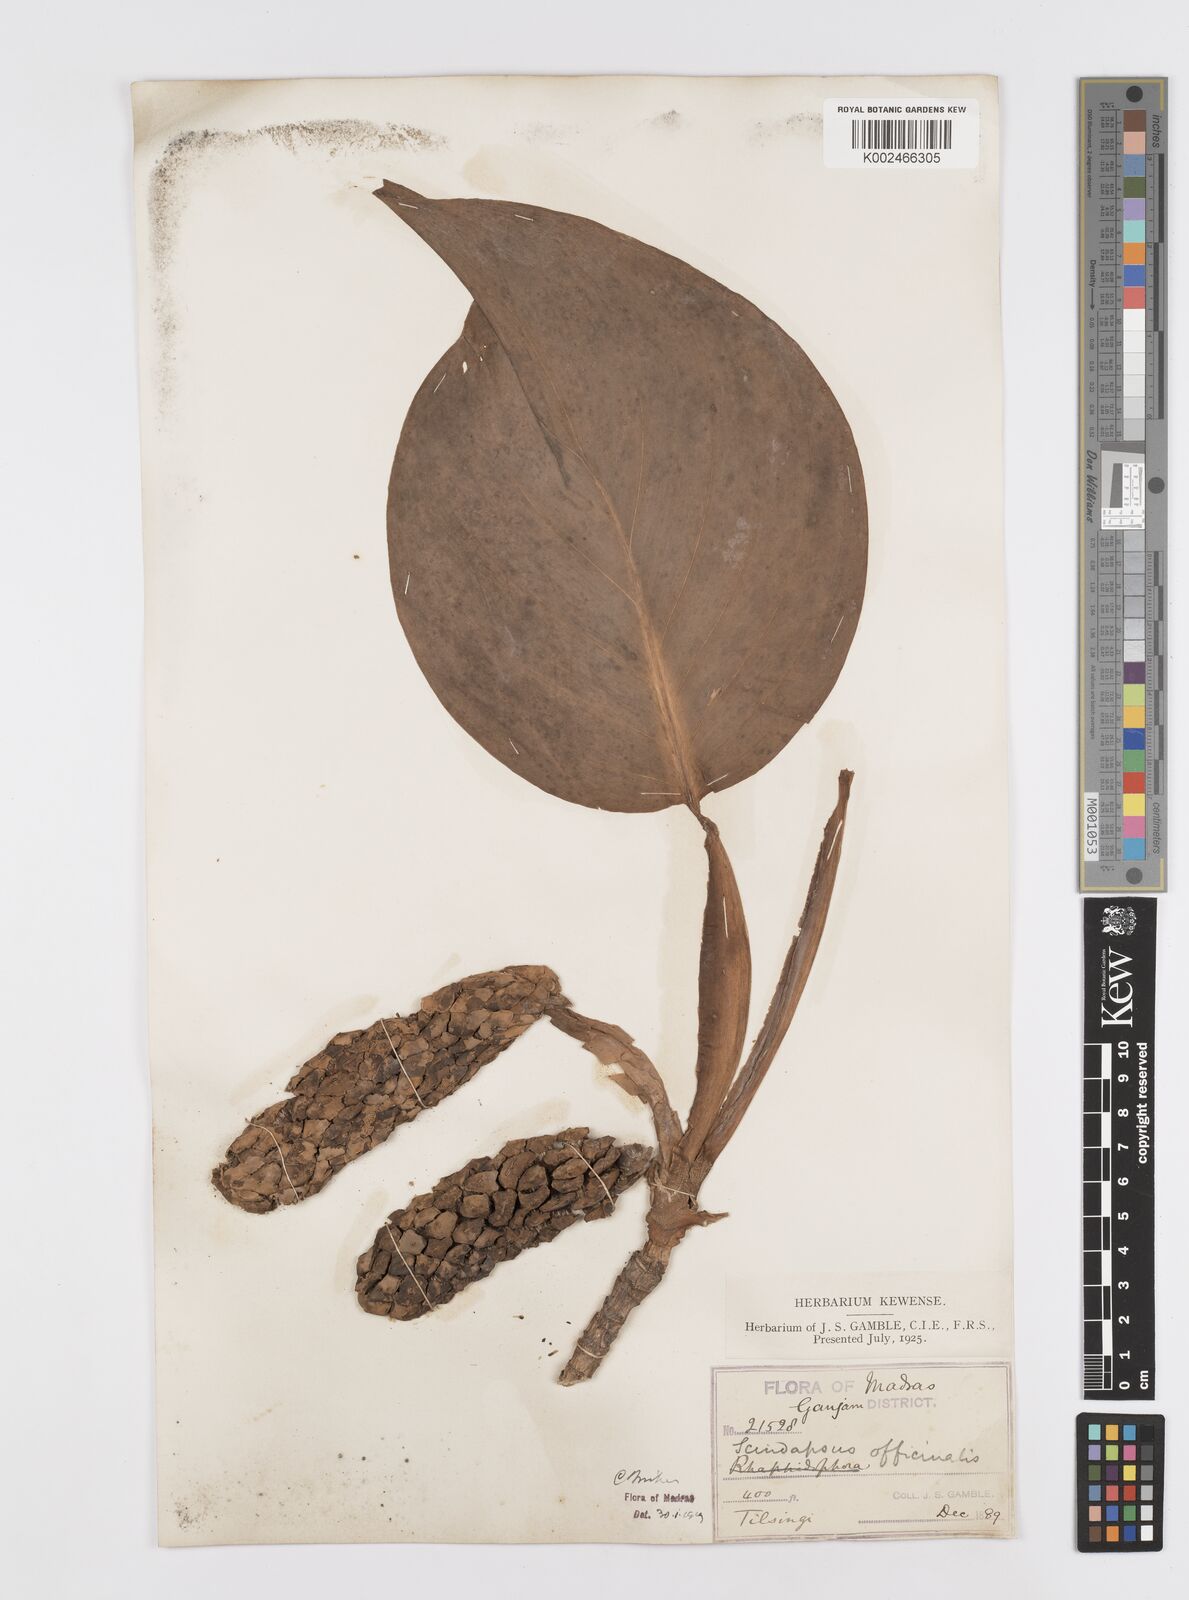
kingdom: Plantae
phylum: Tracheophyta
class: Liliopsida
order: Alismatales
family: Araceae
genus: Scindapsus
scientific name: Scindapsus officinalis
